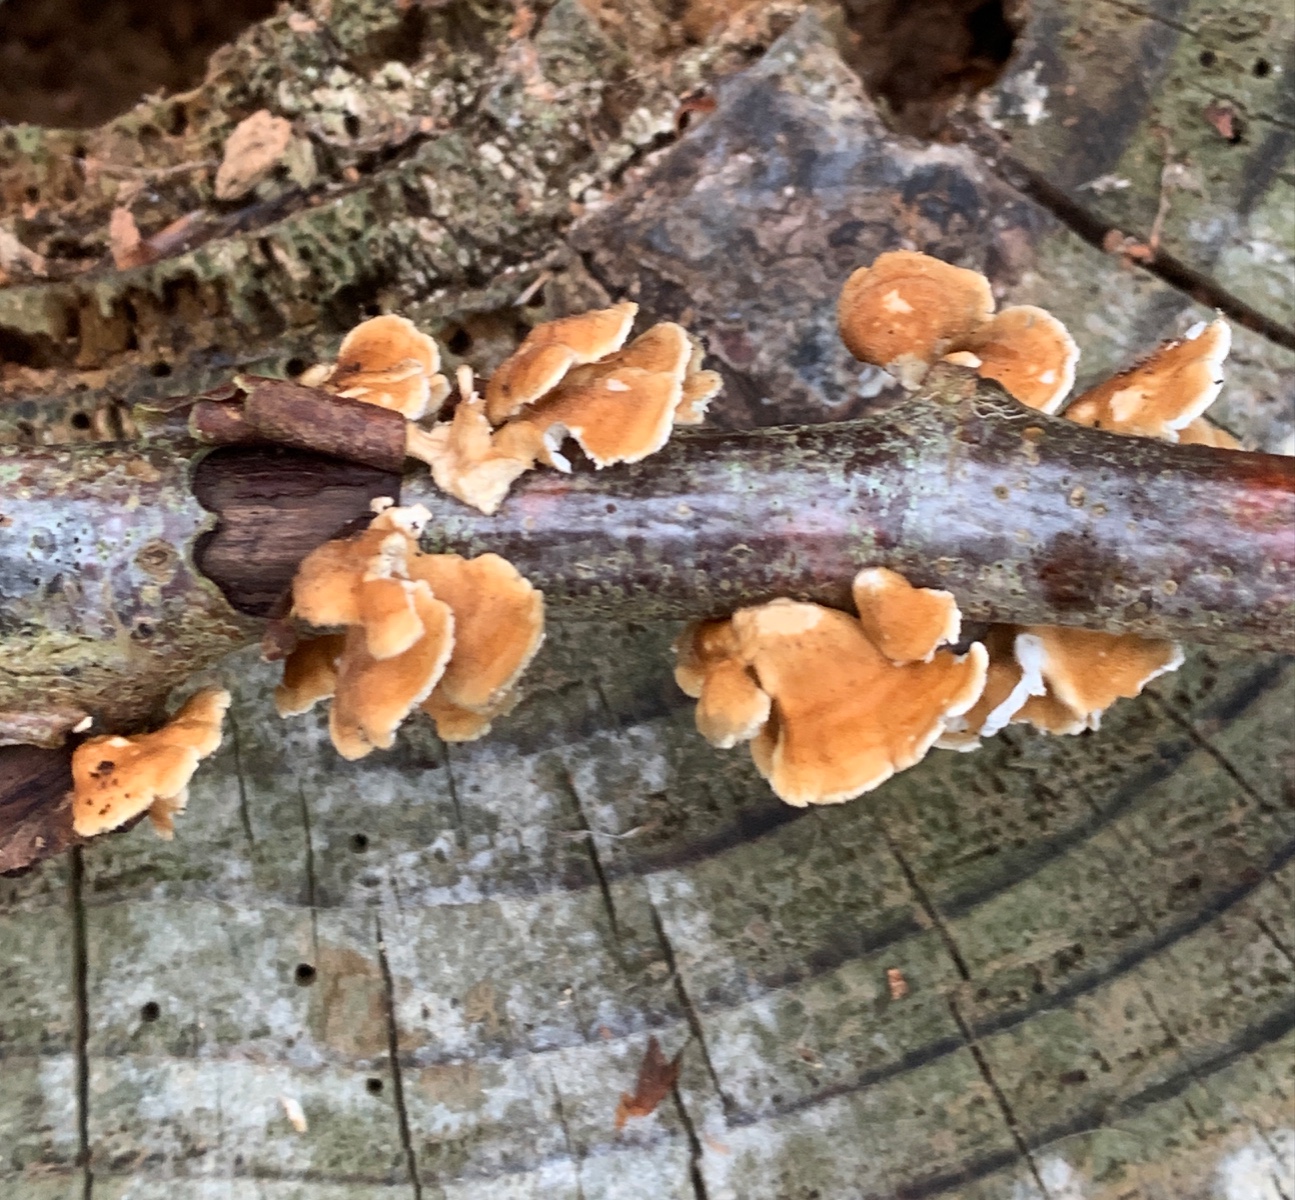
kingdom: Fungi
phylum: Basidiomycota
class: Agaricomycetes
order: Amylocorticiales
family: Amylocorticiaceae
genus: Plicaturopsis
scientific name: Plicaturopsis crispa
